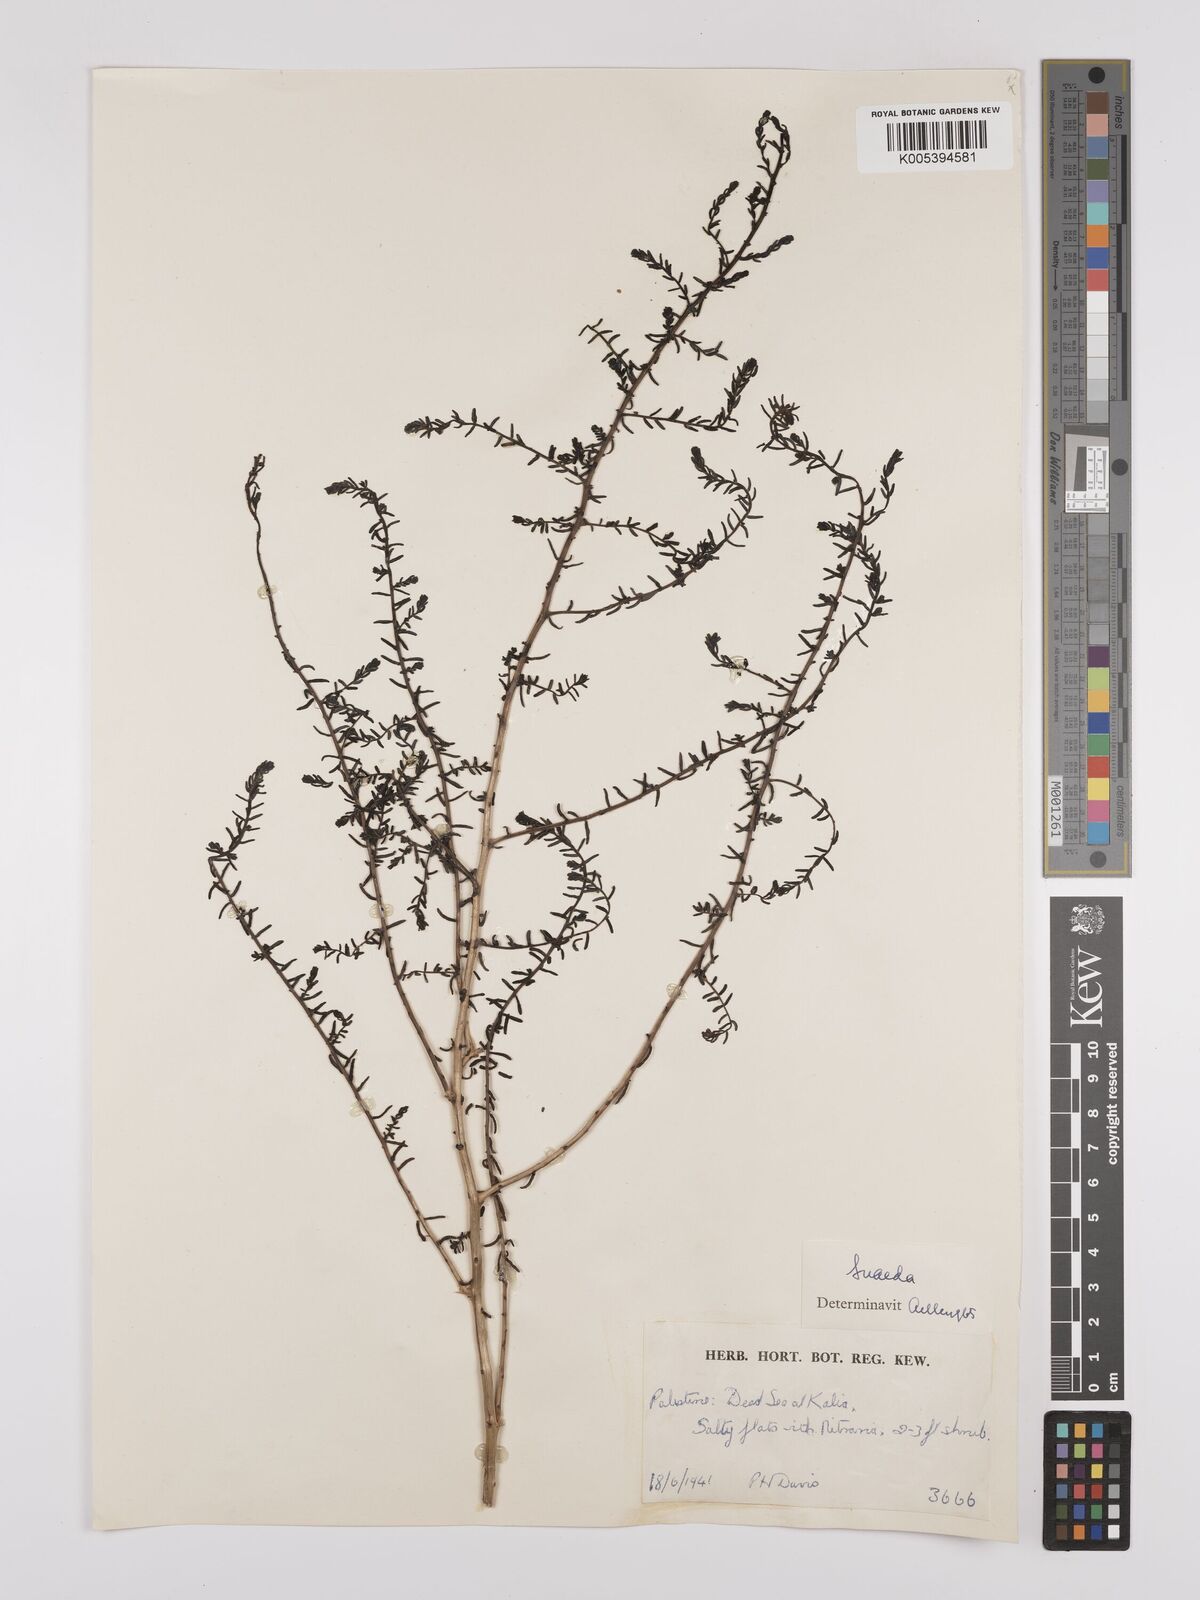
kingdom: Plantae
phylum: Tracheophyta
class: Magnoliopsida
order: Caryophyllales
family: Amaranthaceae
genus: Suaeda
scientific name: Suaeda
